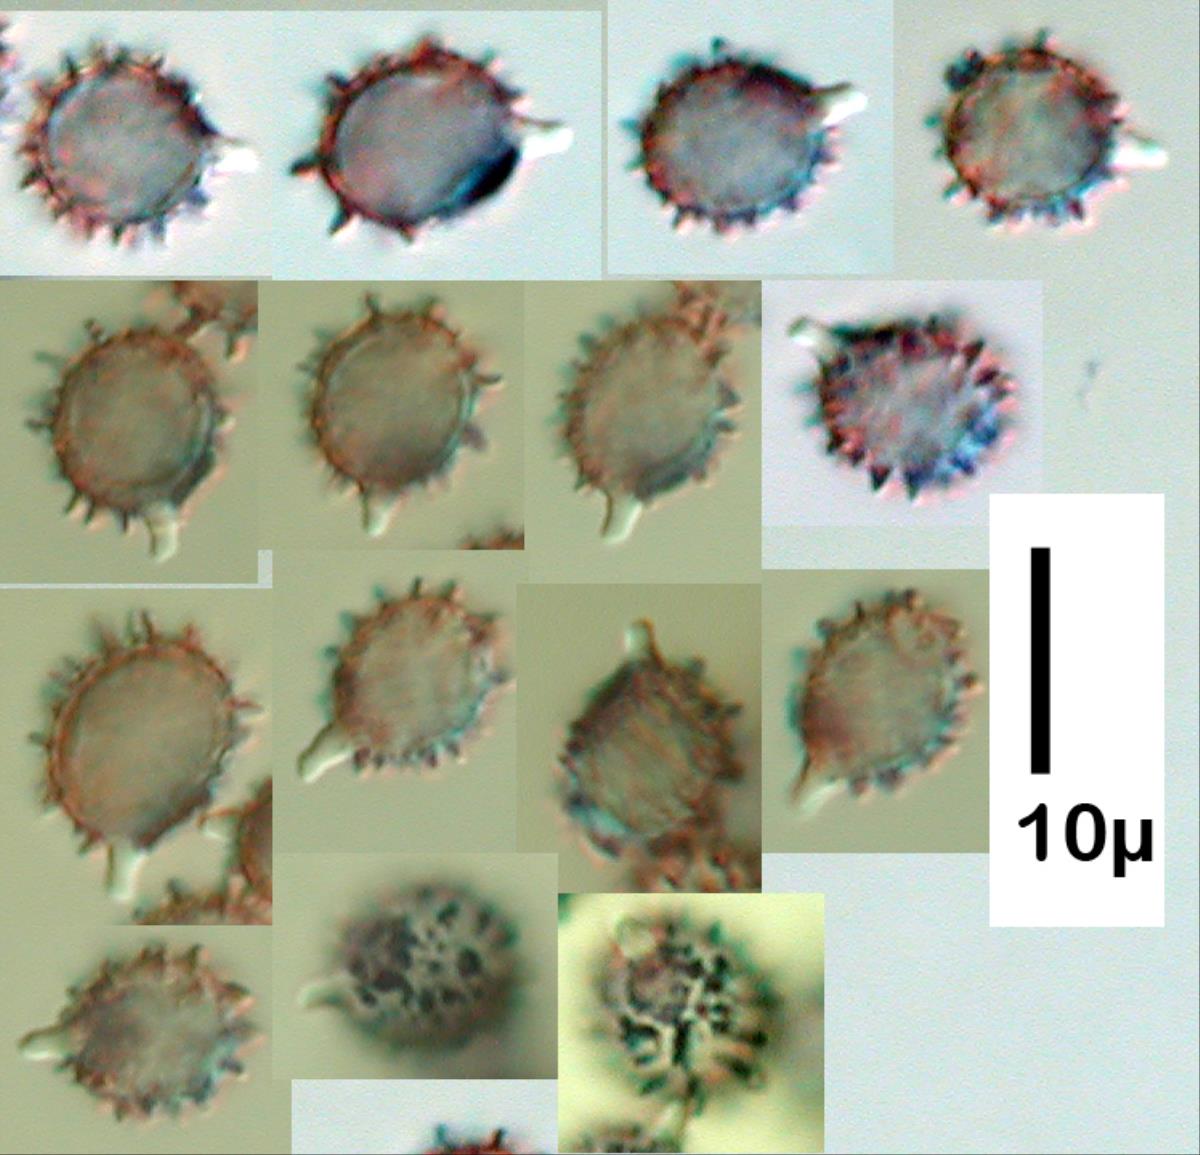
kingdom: Fungi
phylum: Basidiomycota
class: Agaricomycetes
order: Russulales
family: Russulaceae
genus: Russula
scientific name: Russula purpureotincta
